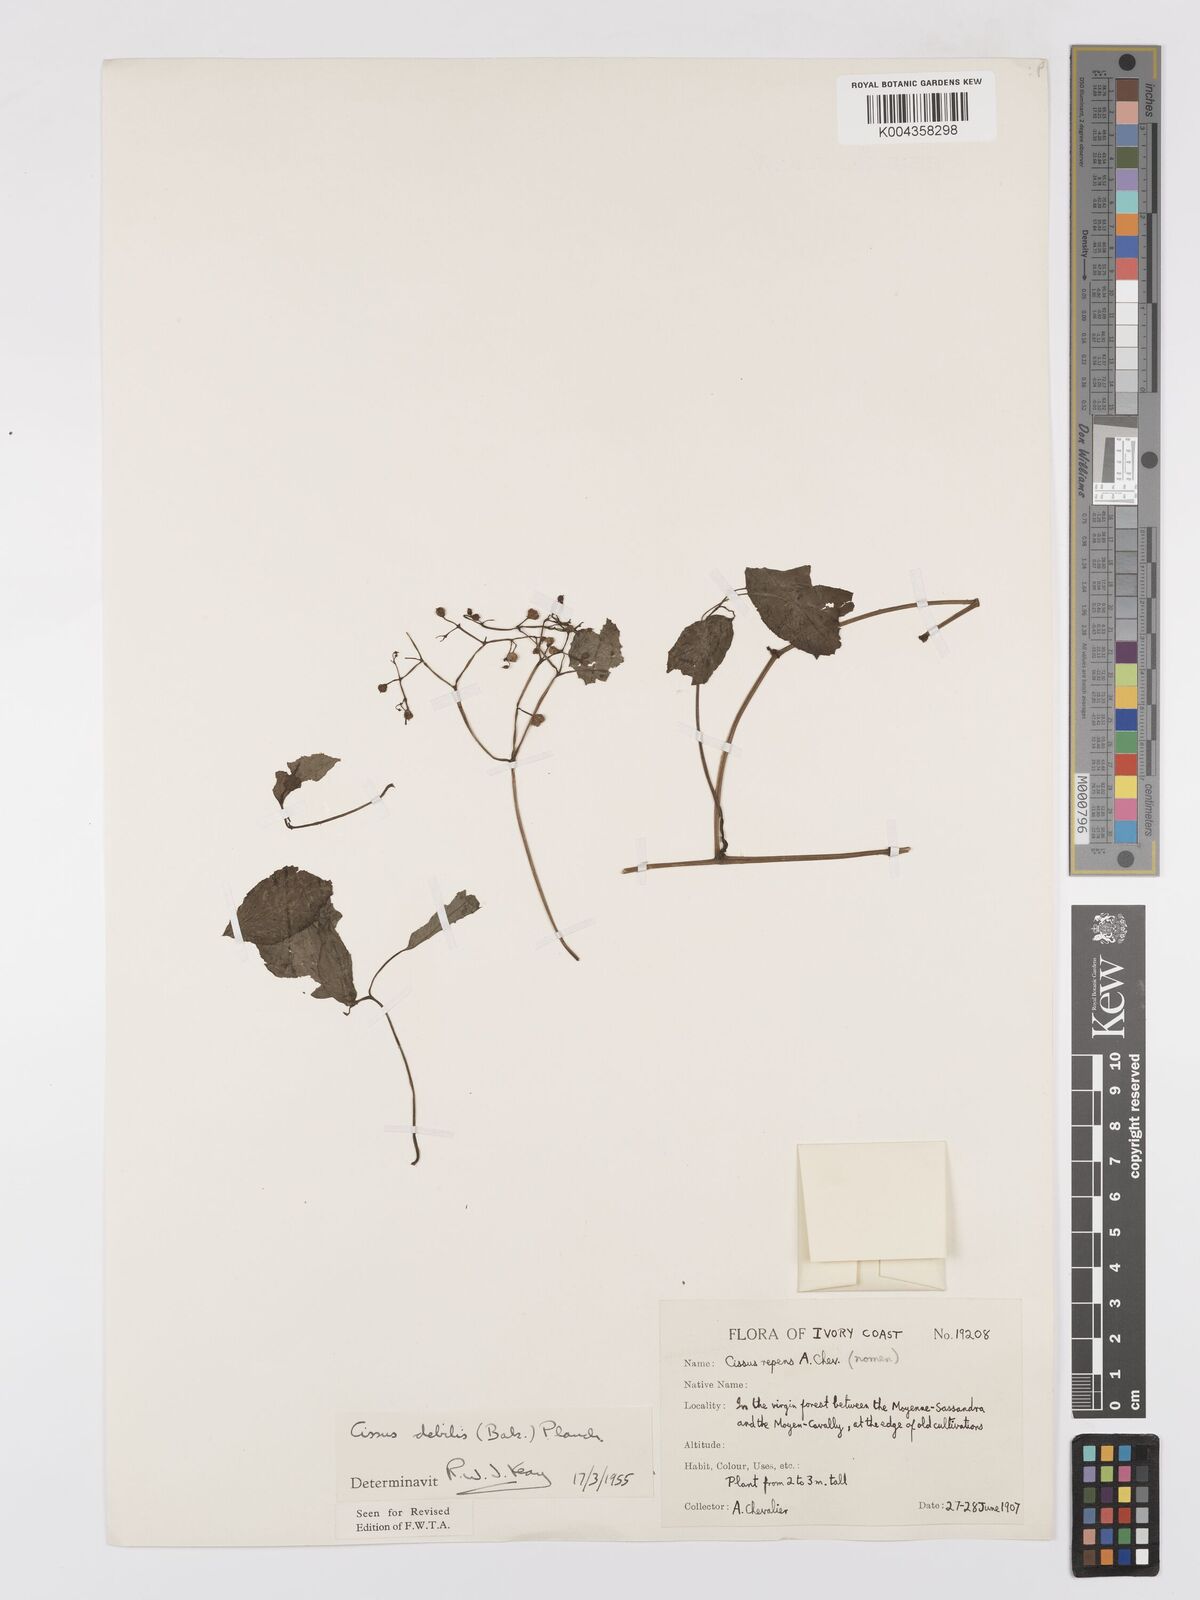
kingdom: Plantae
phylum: Tracheophyta
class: Magnoliopsida
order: Vitales
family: Vitaceae
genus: Afrocayratia
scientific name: Afrocayratia debilis
